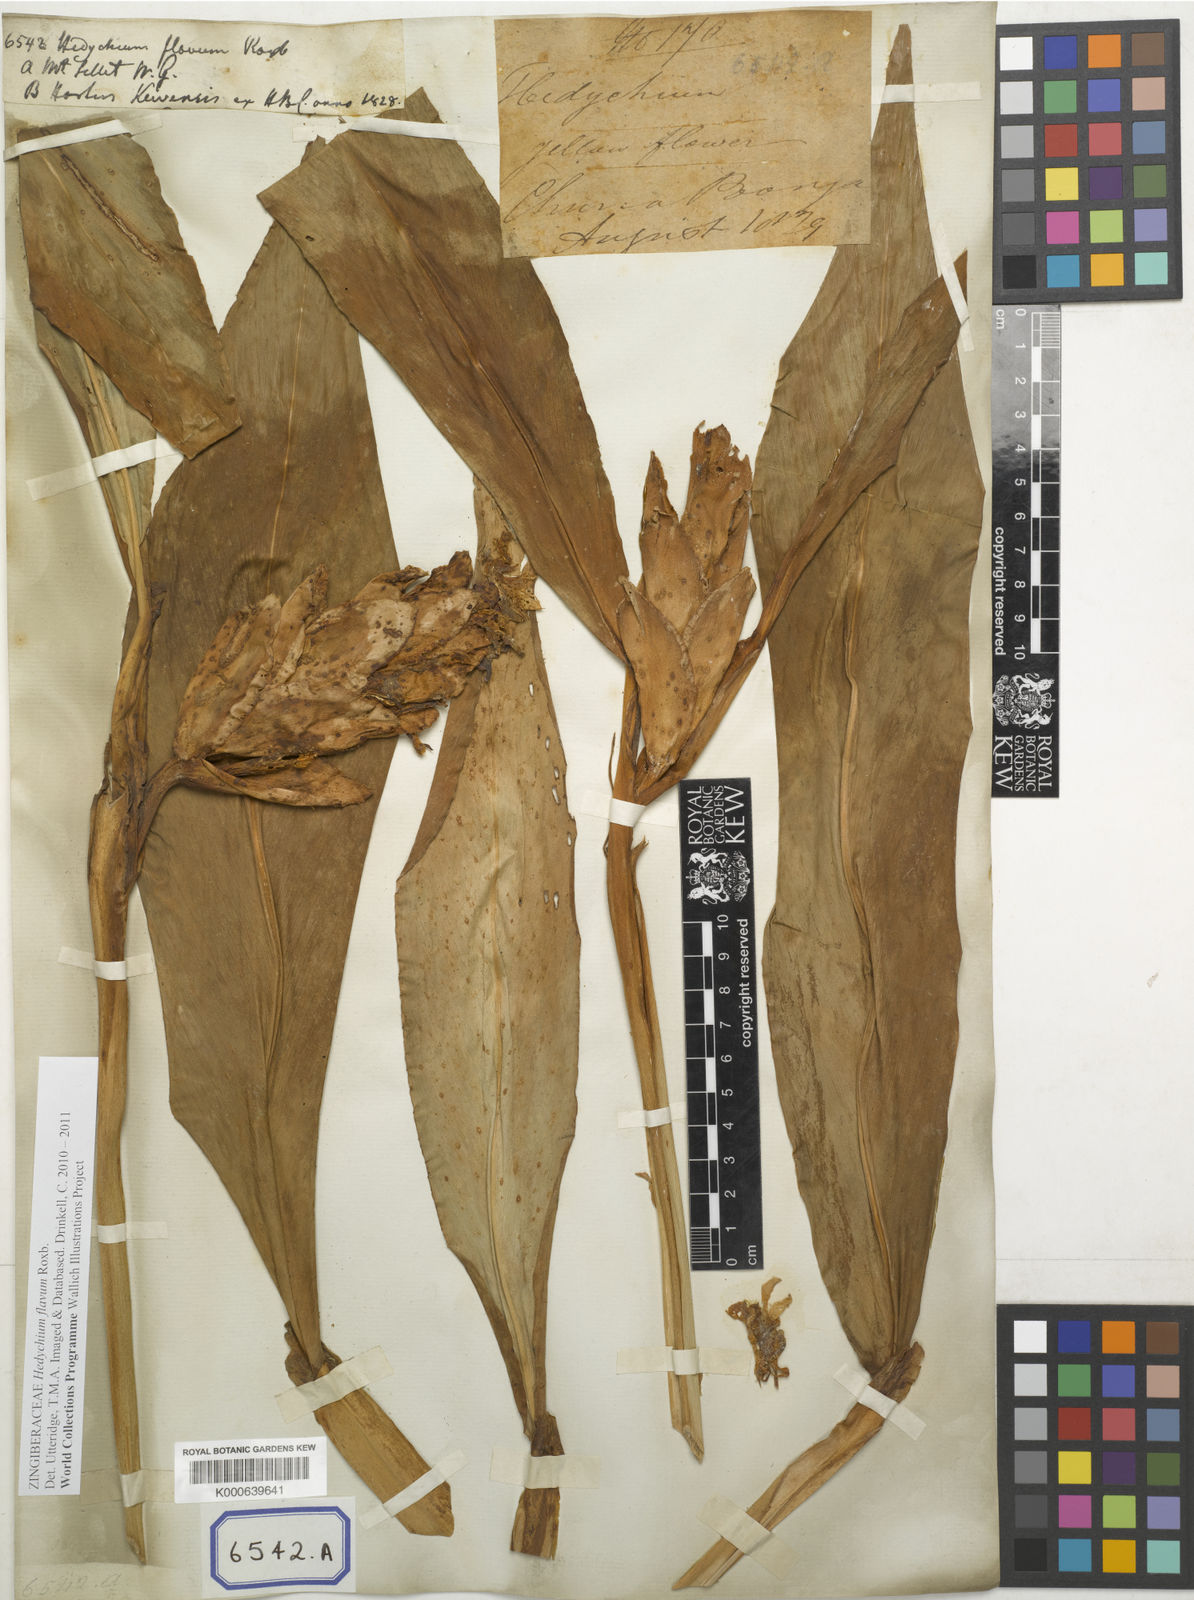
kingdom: Plantae
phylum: Tracheophyta
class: Liliopsida
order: Zingiberales
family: Zingiberaceae
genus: Hedychium
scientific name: Hedychium flavum
